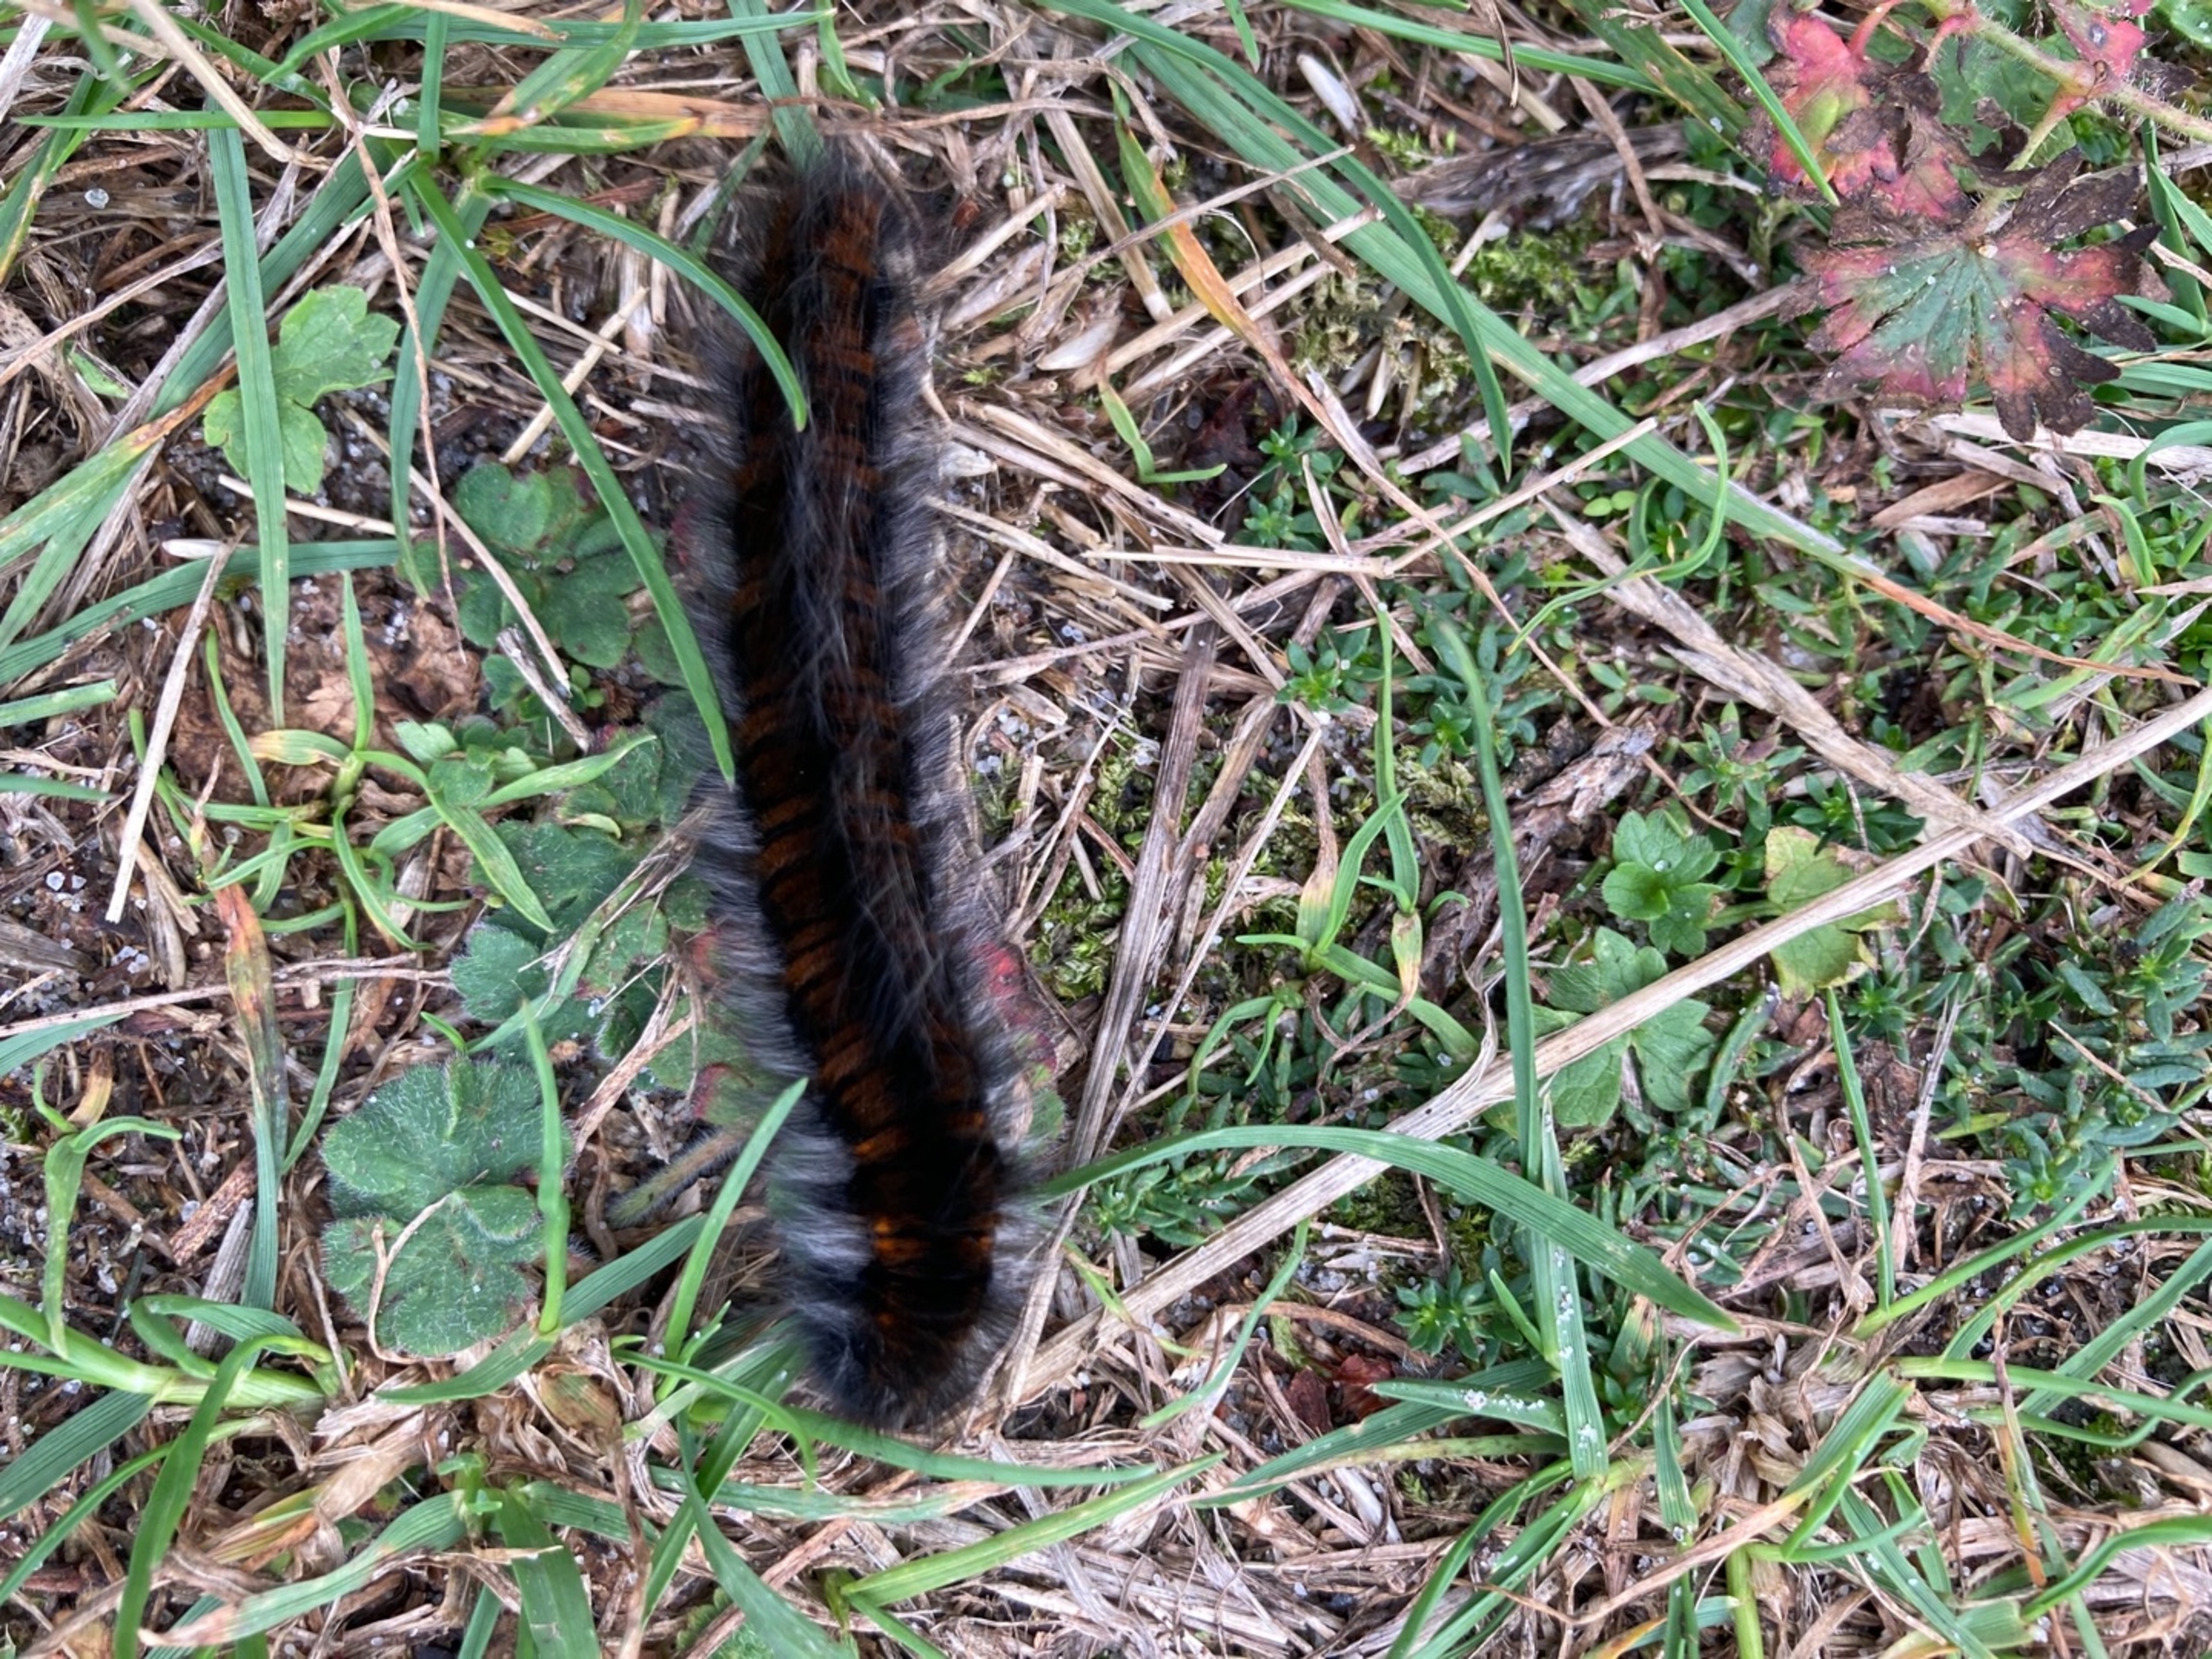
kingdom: Animalia
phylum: Arthropoda
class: Insecta
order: Lepidoptera
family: Lasiocampidae
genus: Macrothylacia
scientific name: Macrothylacia rubi
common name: Brombærspinder
